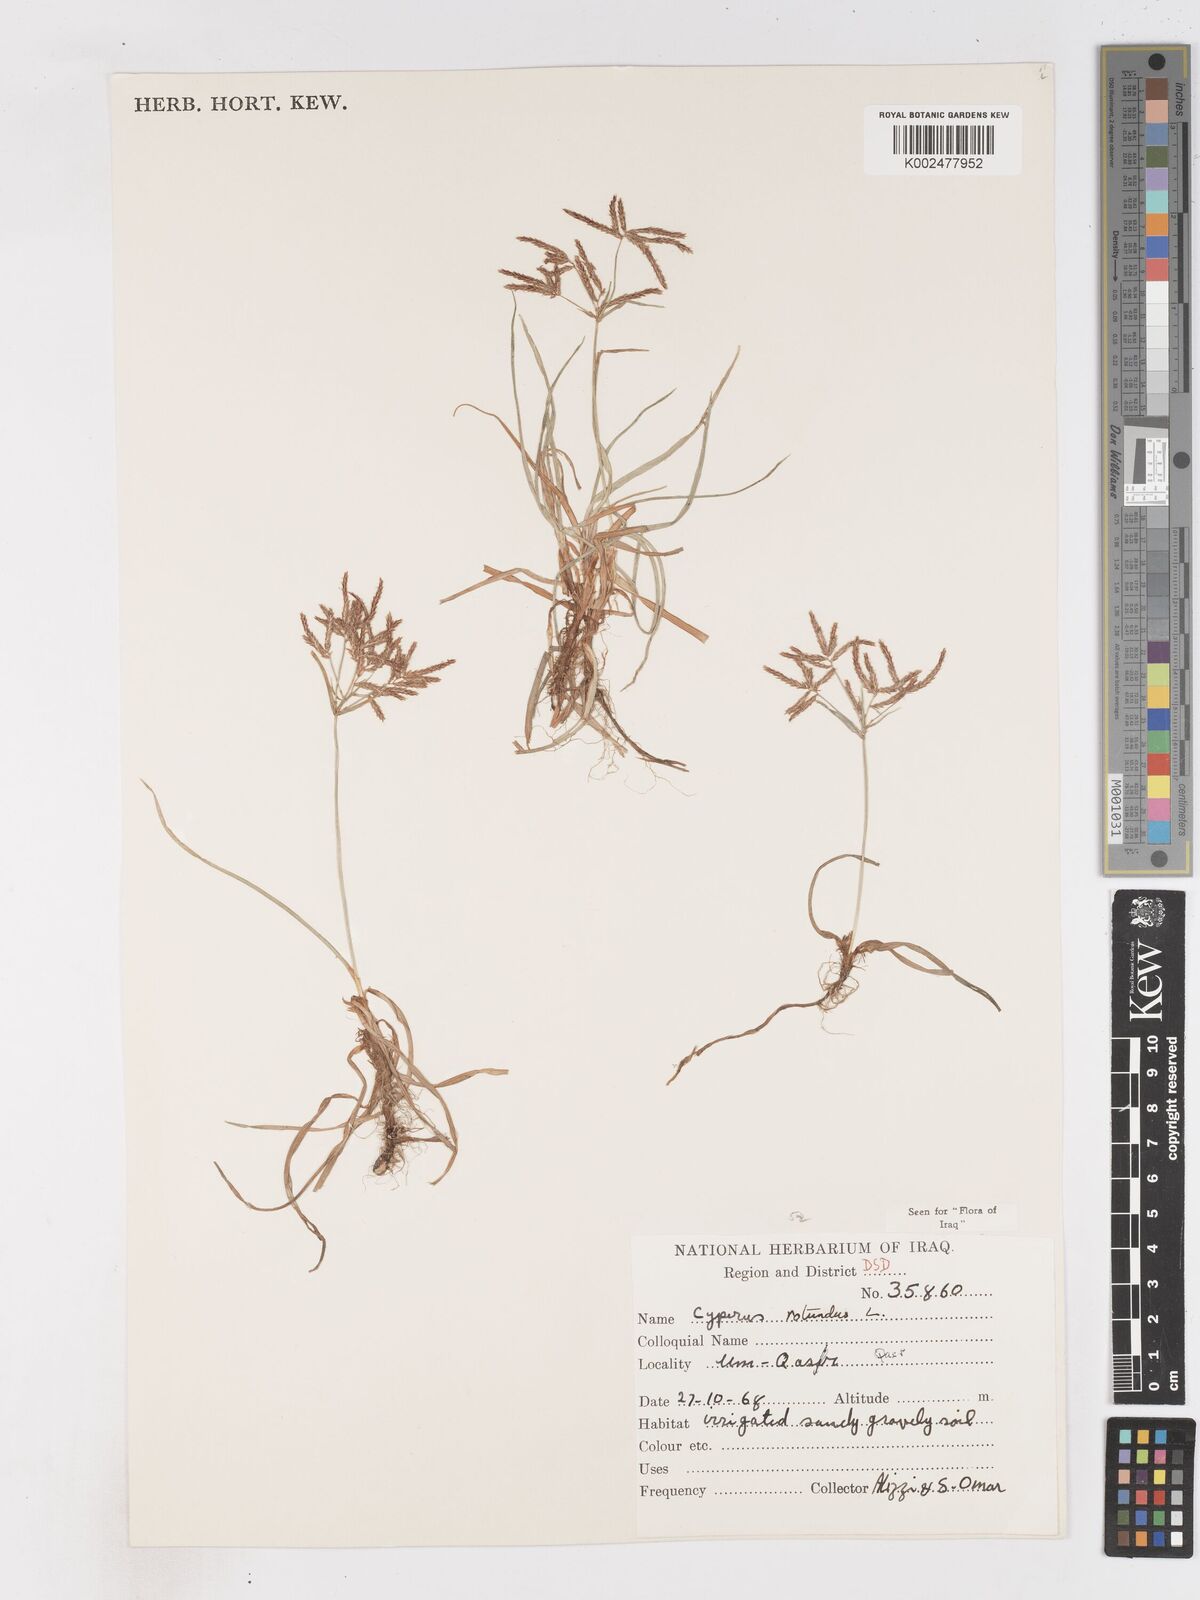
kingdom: Plantae
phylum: Tracheophyta
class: Liliopsida
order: Poales
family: Cyperaceae
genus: Cyperus
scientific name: Cyperus rotundus
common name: Nutgrass
